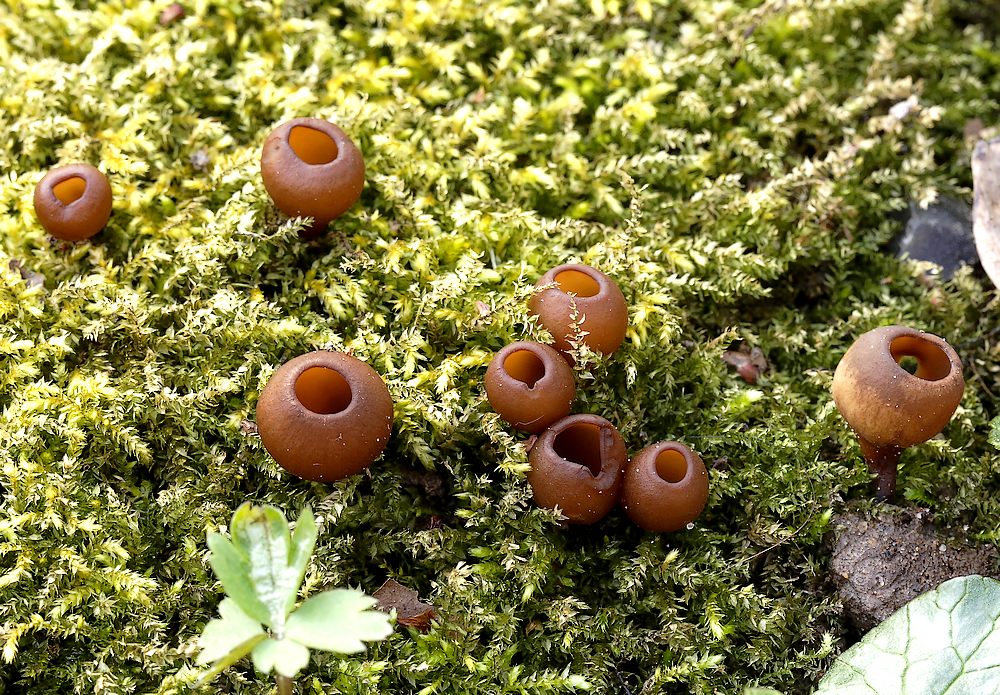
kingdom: Fungi
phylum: Ascomycota
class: Leotiomycetes
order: Helotiales
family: Sclerotiniaceae
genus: Dumontinia
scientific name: Dumontinia tuberosa
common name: anemone-knoldskive
